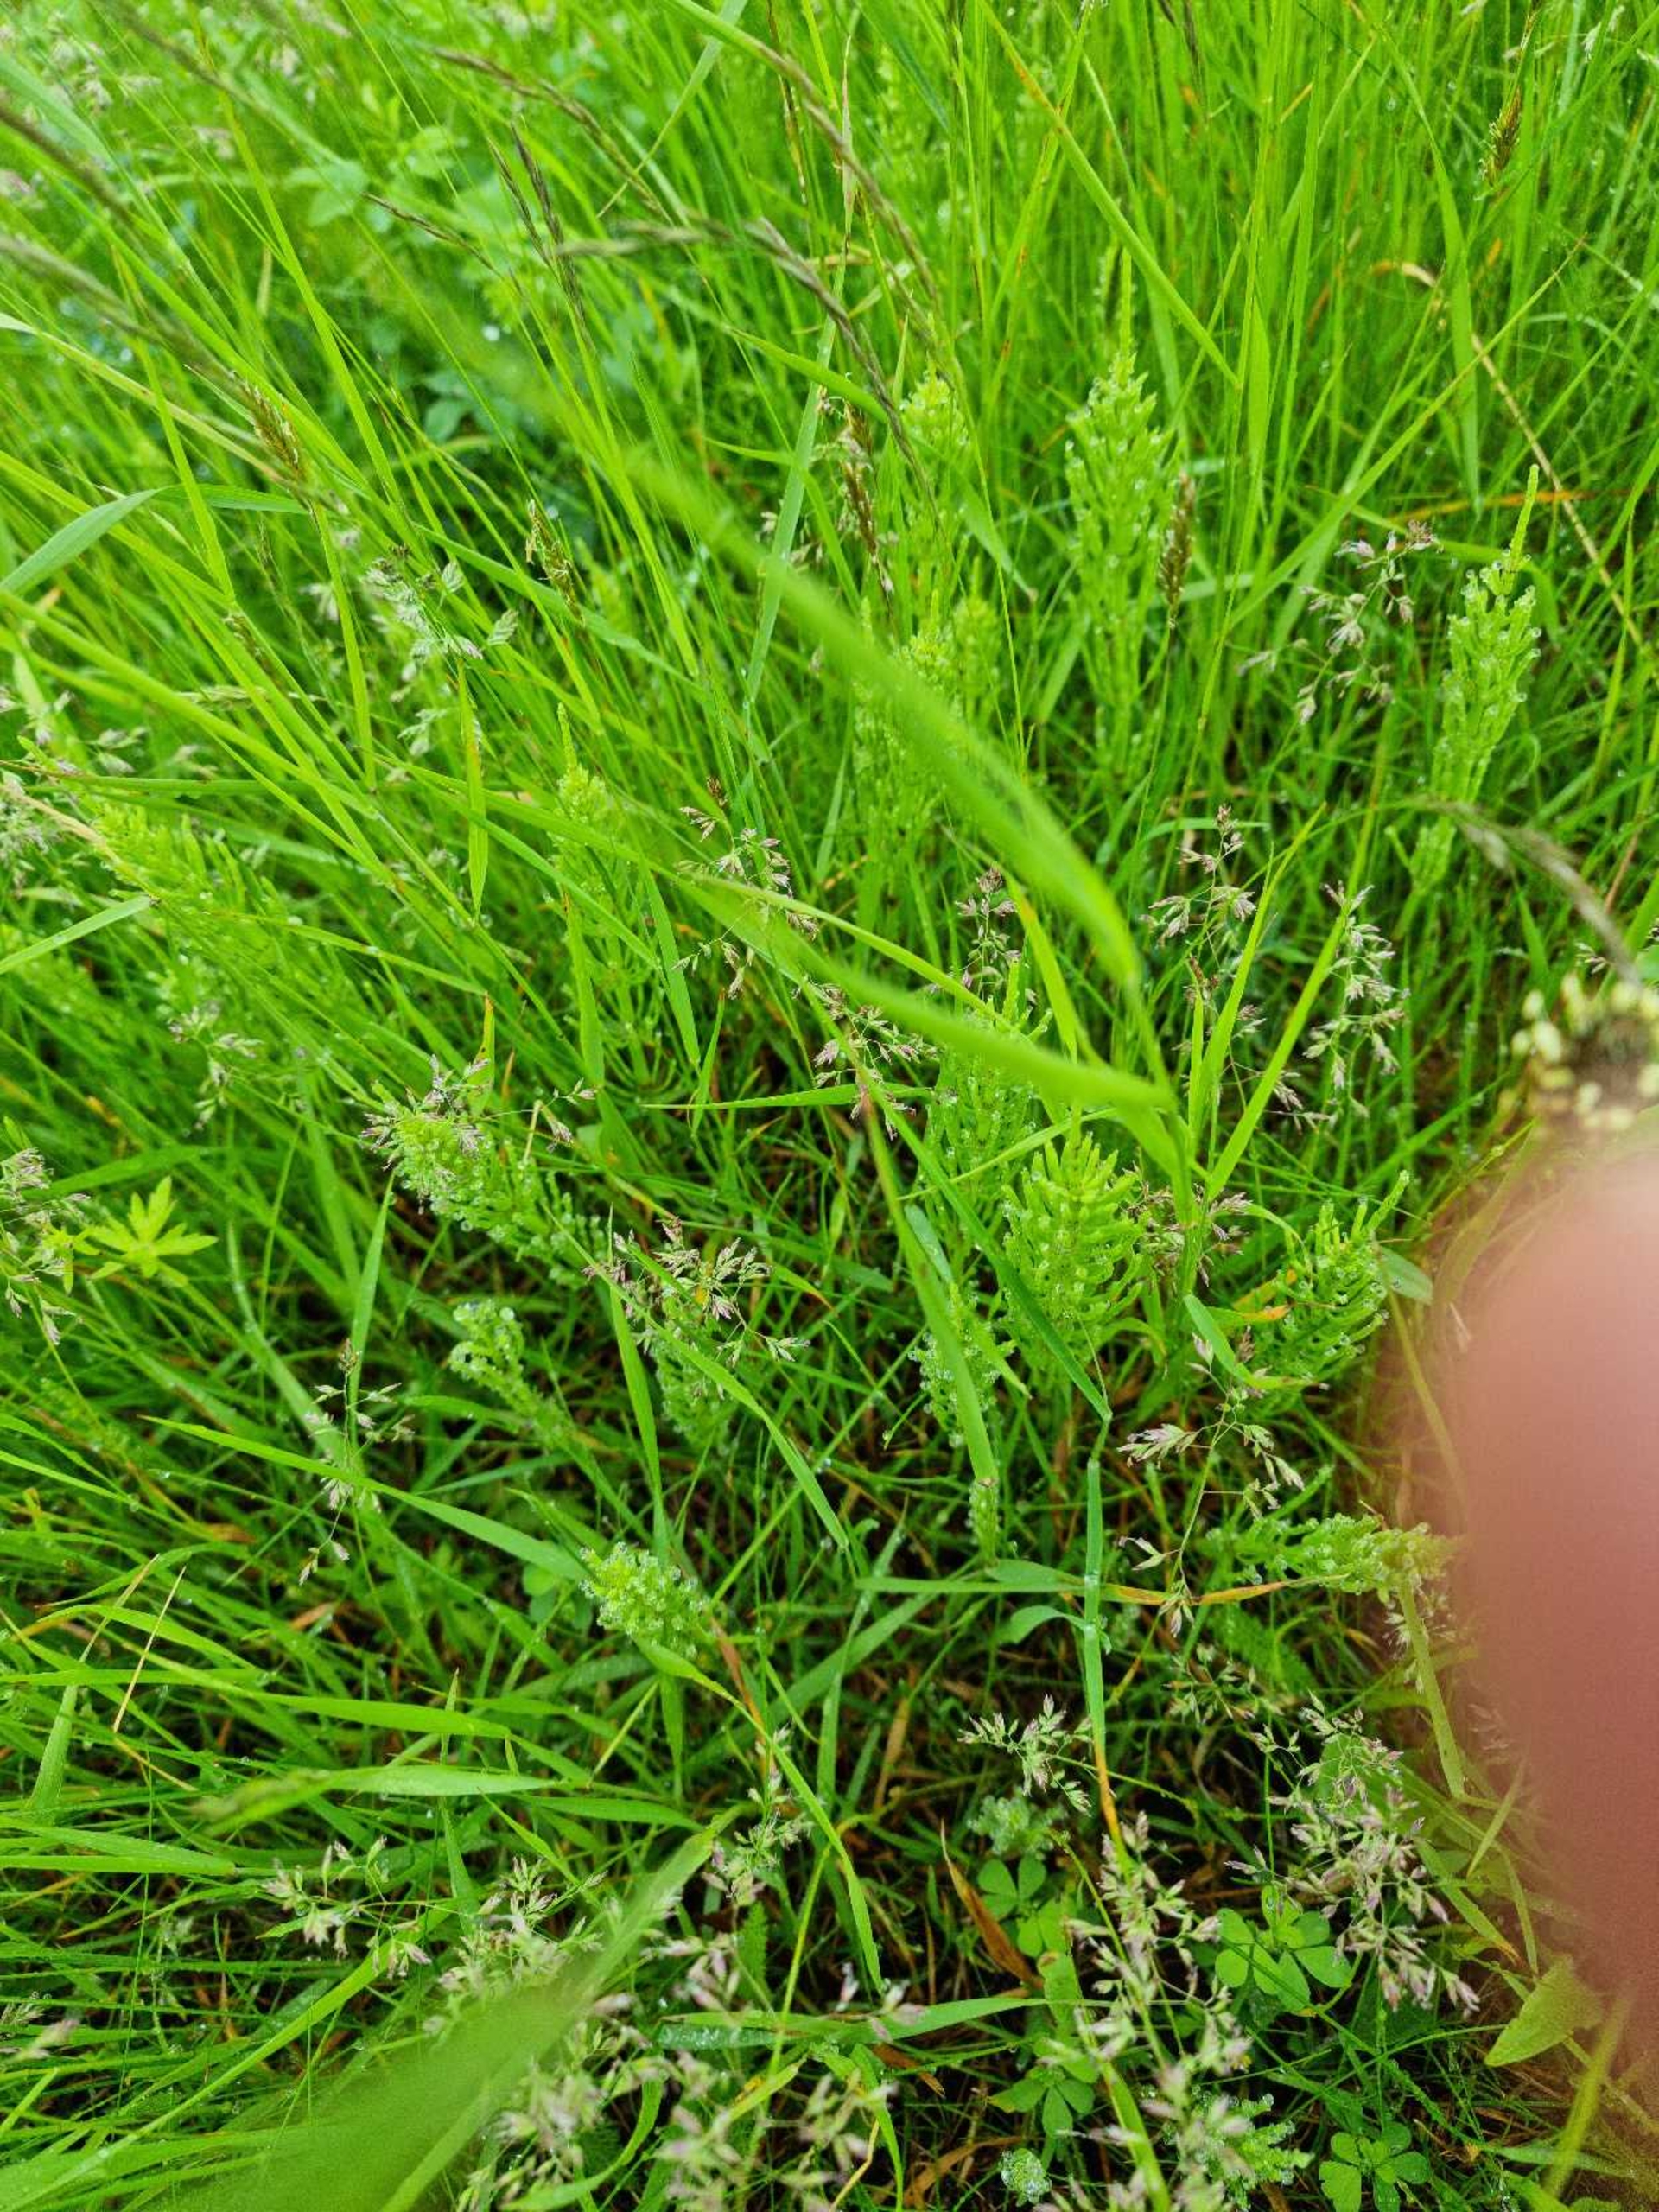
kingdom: Plantae
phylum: Tracheophyta
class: Polypodiopsida
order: Equisetales
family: Equisetaceae
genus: Equisetum
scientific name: Equisetum arvense
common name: Ager-padderok
